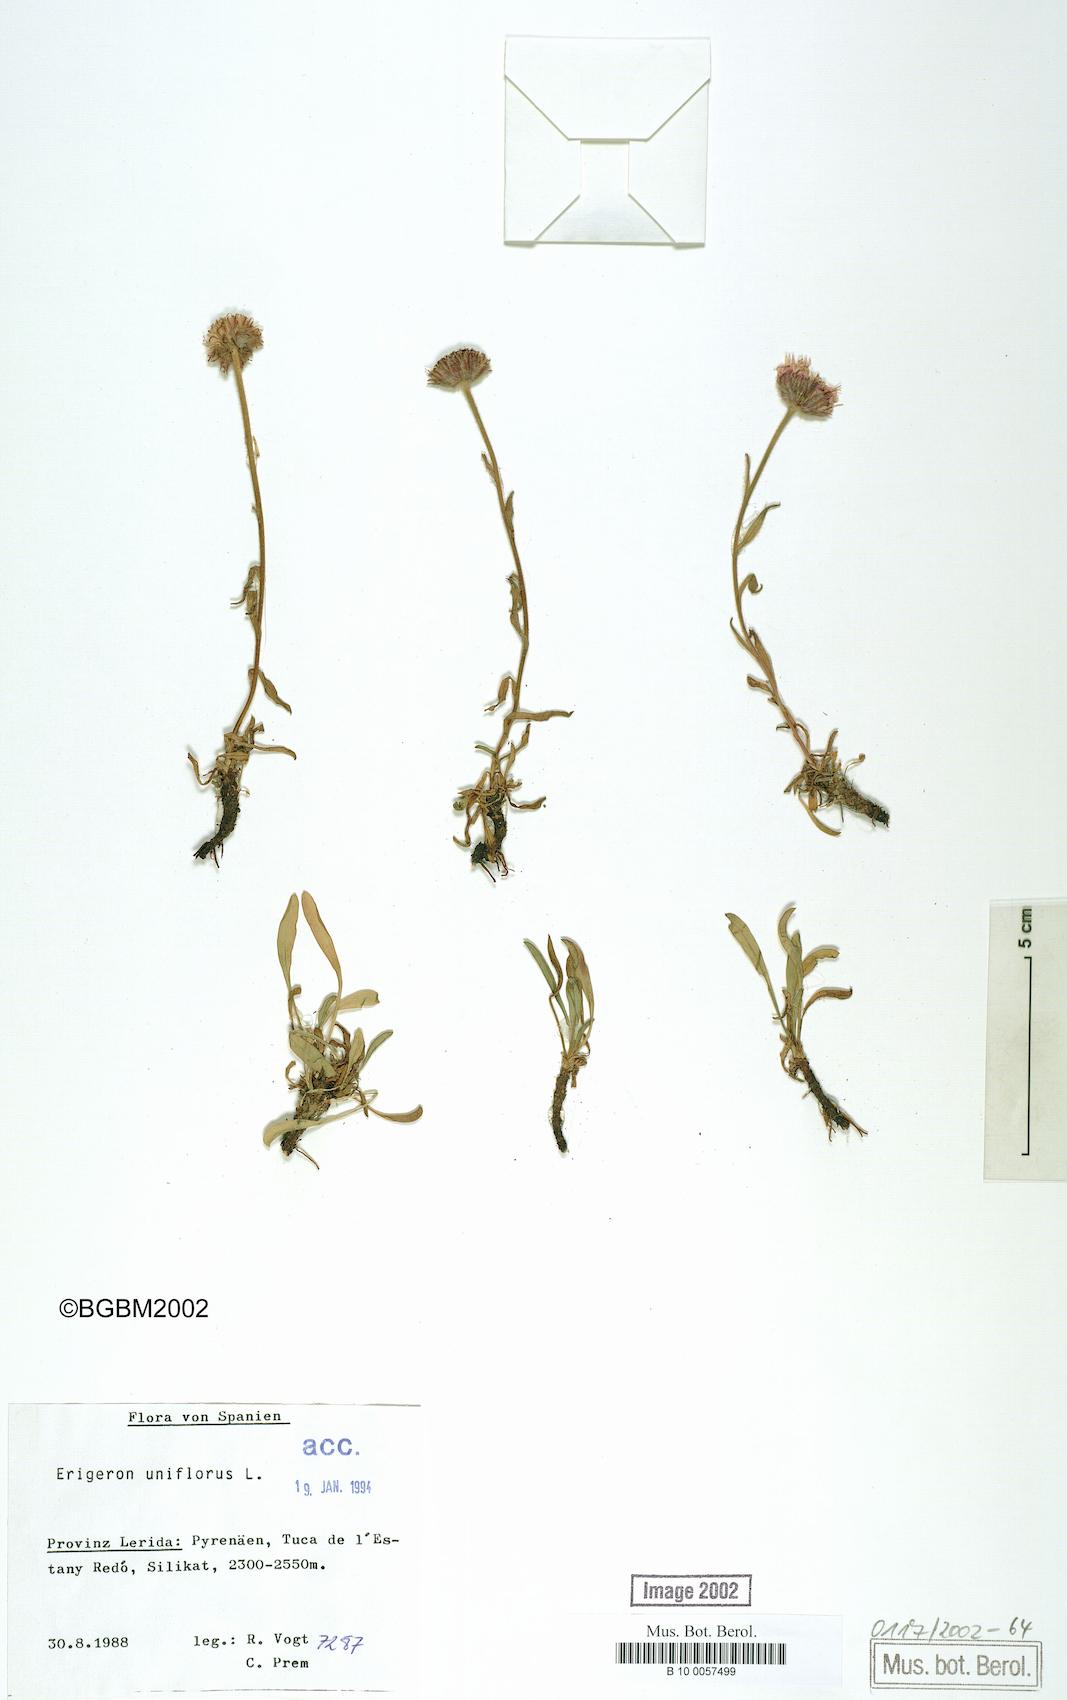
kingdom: Plantae
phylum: Tracheophyta
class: Magnoliopsida
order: Asterales
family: Asteraceae
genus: Erigeron
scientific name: Erigeron uniflorus
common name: Northern daisy
